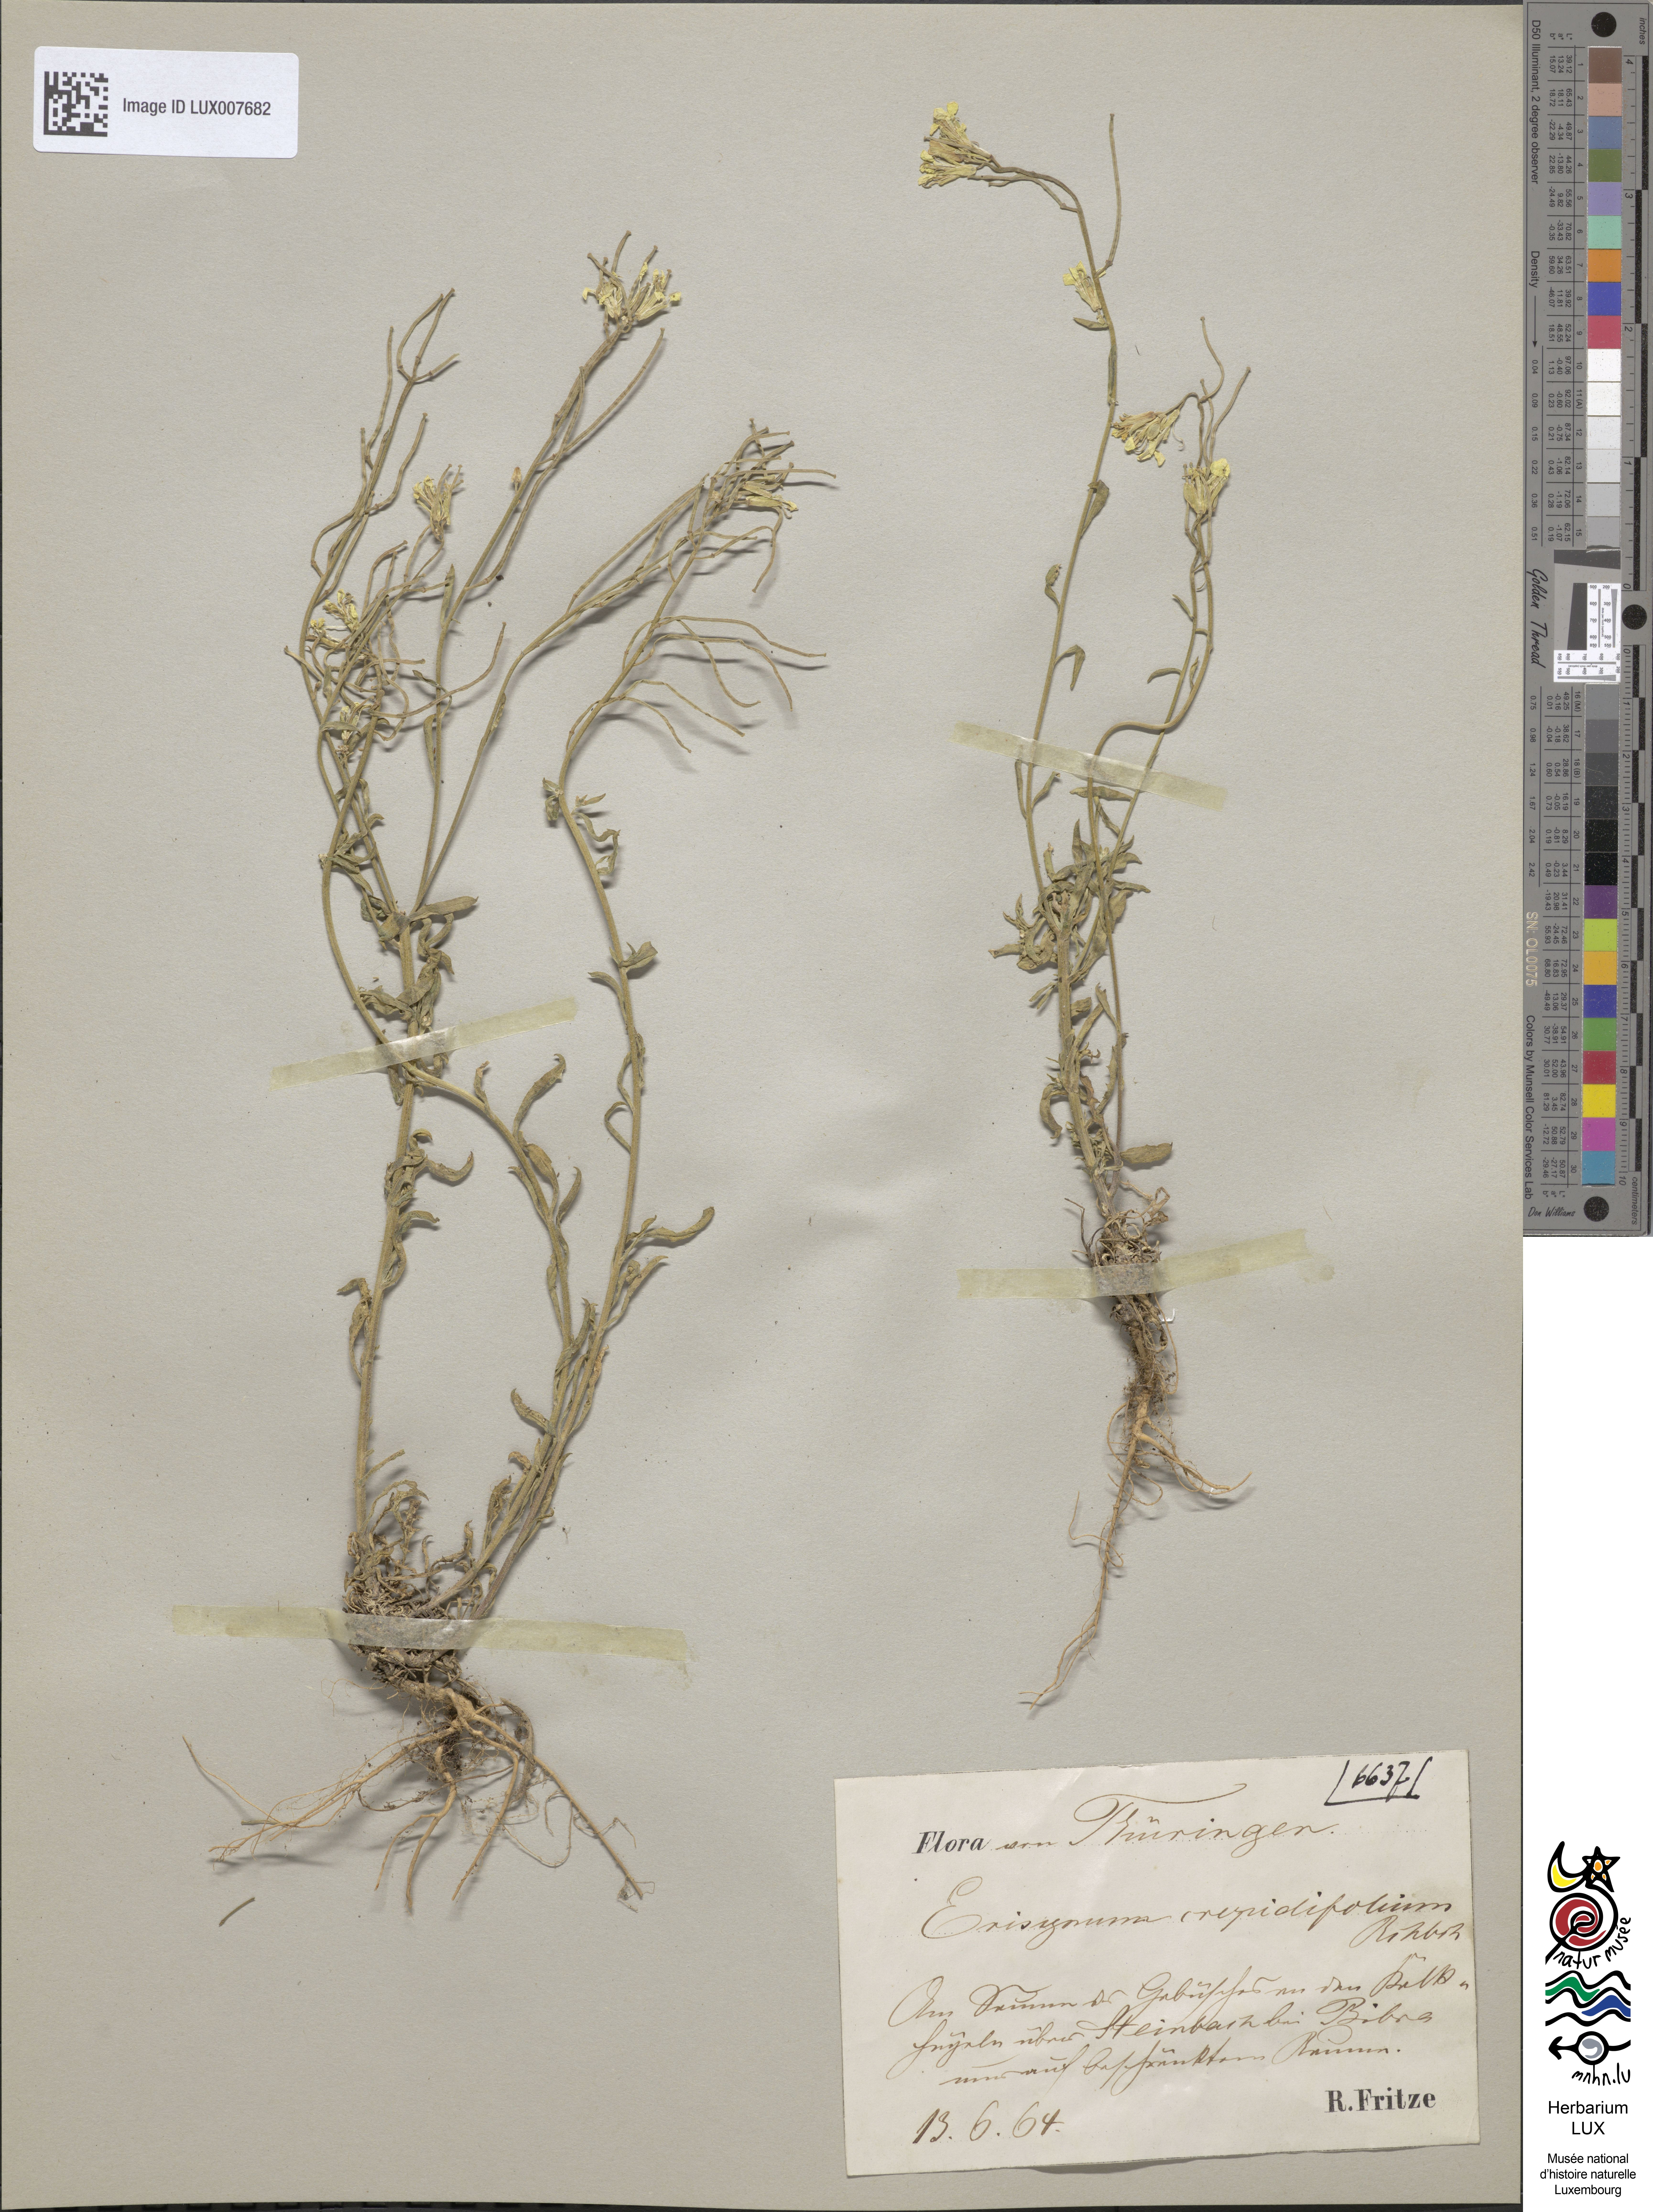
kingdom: Plantae
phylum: Tracheophyta
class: Magnoliopsida
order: Brassicales
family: Brassicaceae
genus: Erysimum
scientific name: Erysimum crepidifolium
